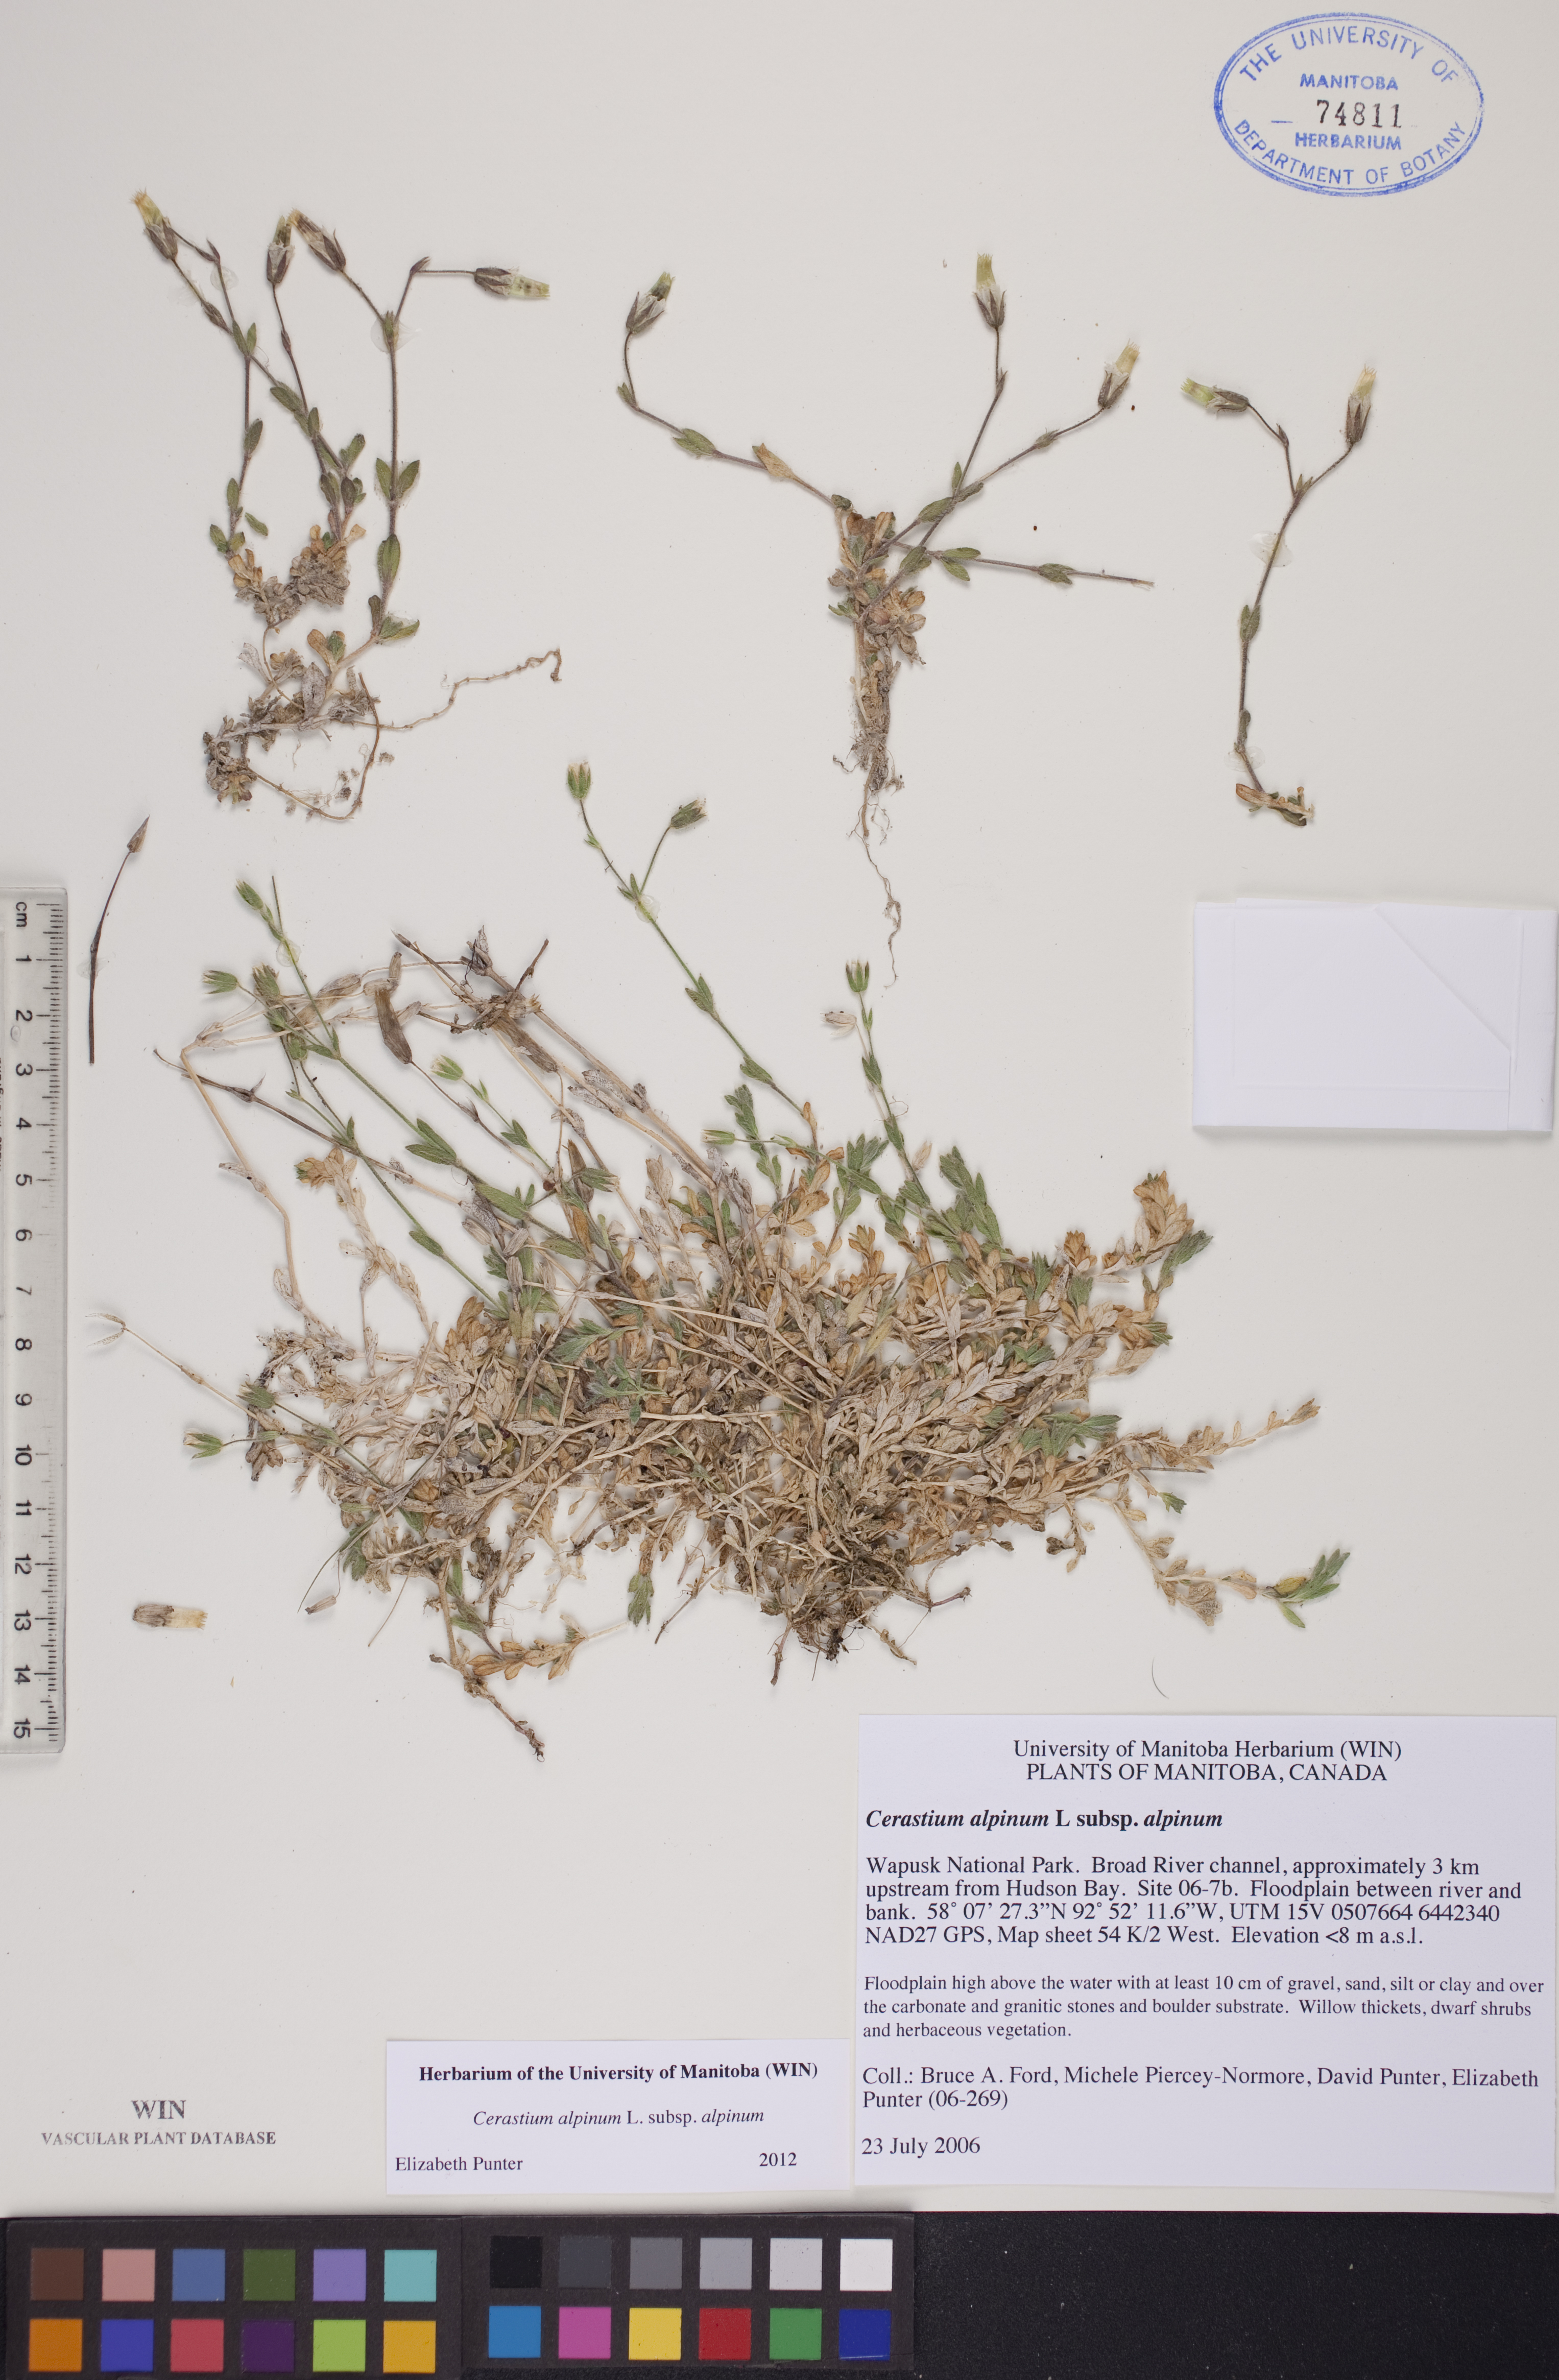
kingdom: Plantae
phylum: Tracheophyta
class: Magnoliopsida
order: Caryophyllales
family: Caryophyllaceae
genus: Cerastium
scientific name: Cerastium alpinum
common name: Alpine mouse-ear
